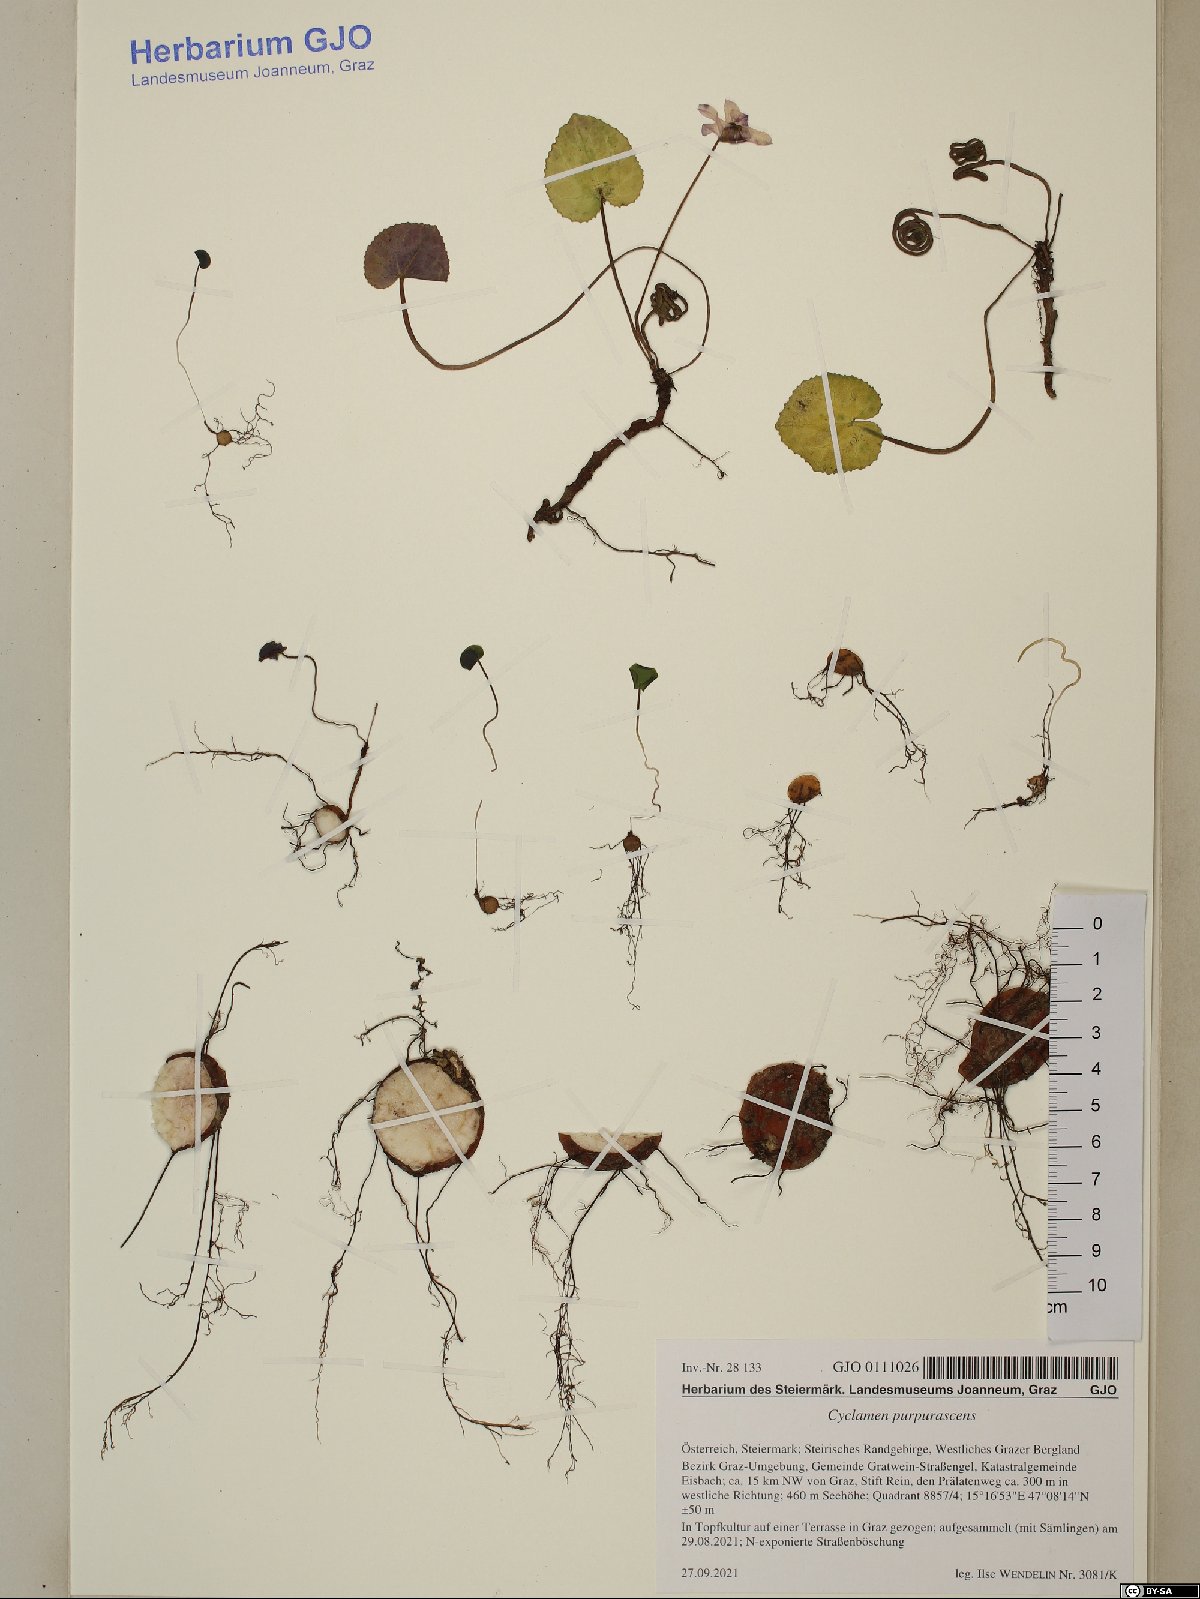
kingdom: Plantae
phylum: Tracheophyta
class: Magnoliopsida
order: Ericales
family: Primulaceae
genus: Cyclamen
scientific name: Cyclamen purpurascens
